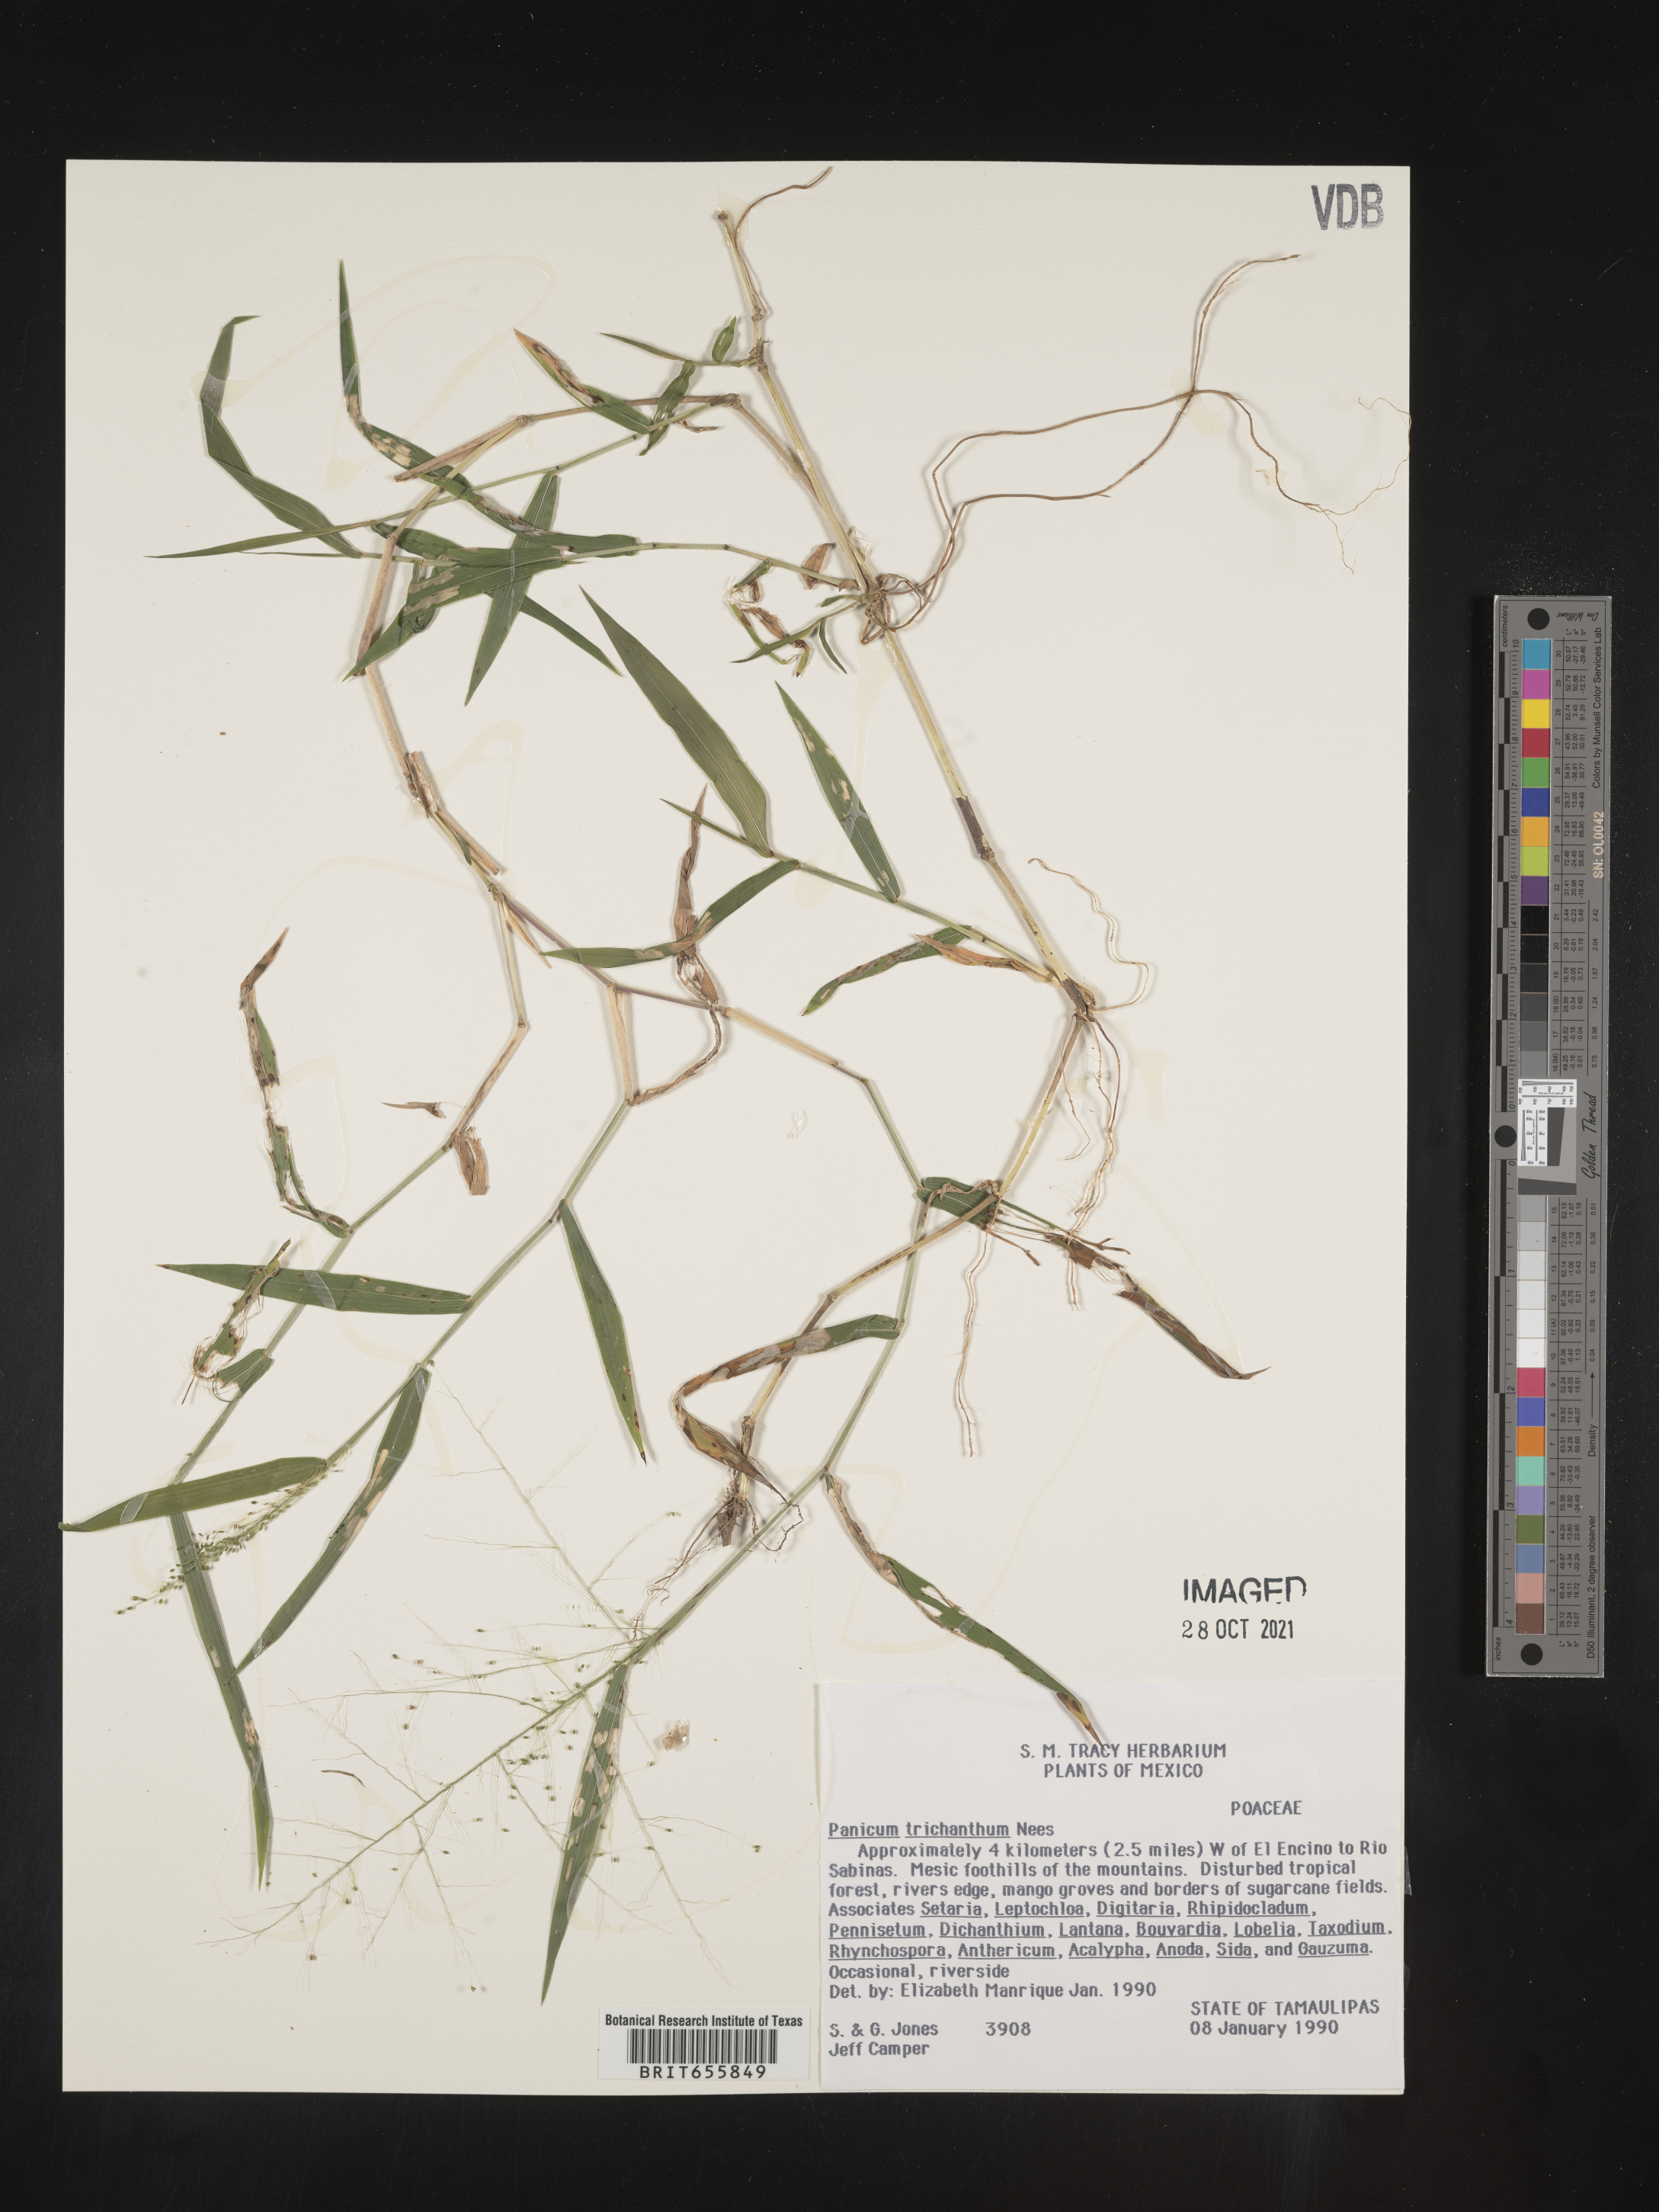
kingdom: Plantae
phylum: Tracheophyta
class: Liliopsida
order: Poales
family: Poaceae
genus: Panicum
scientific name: Panicum
